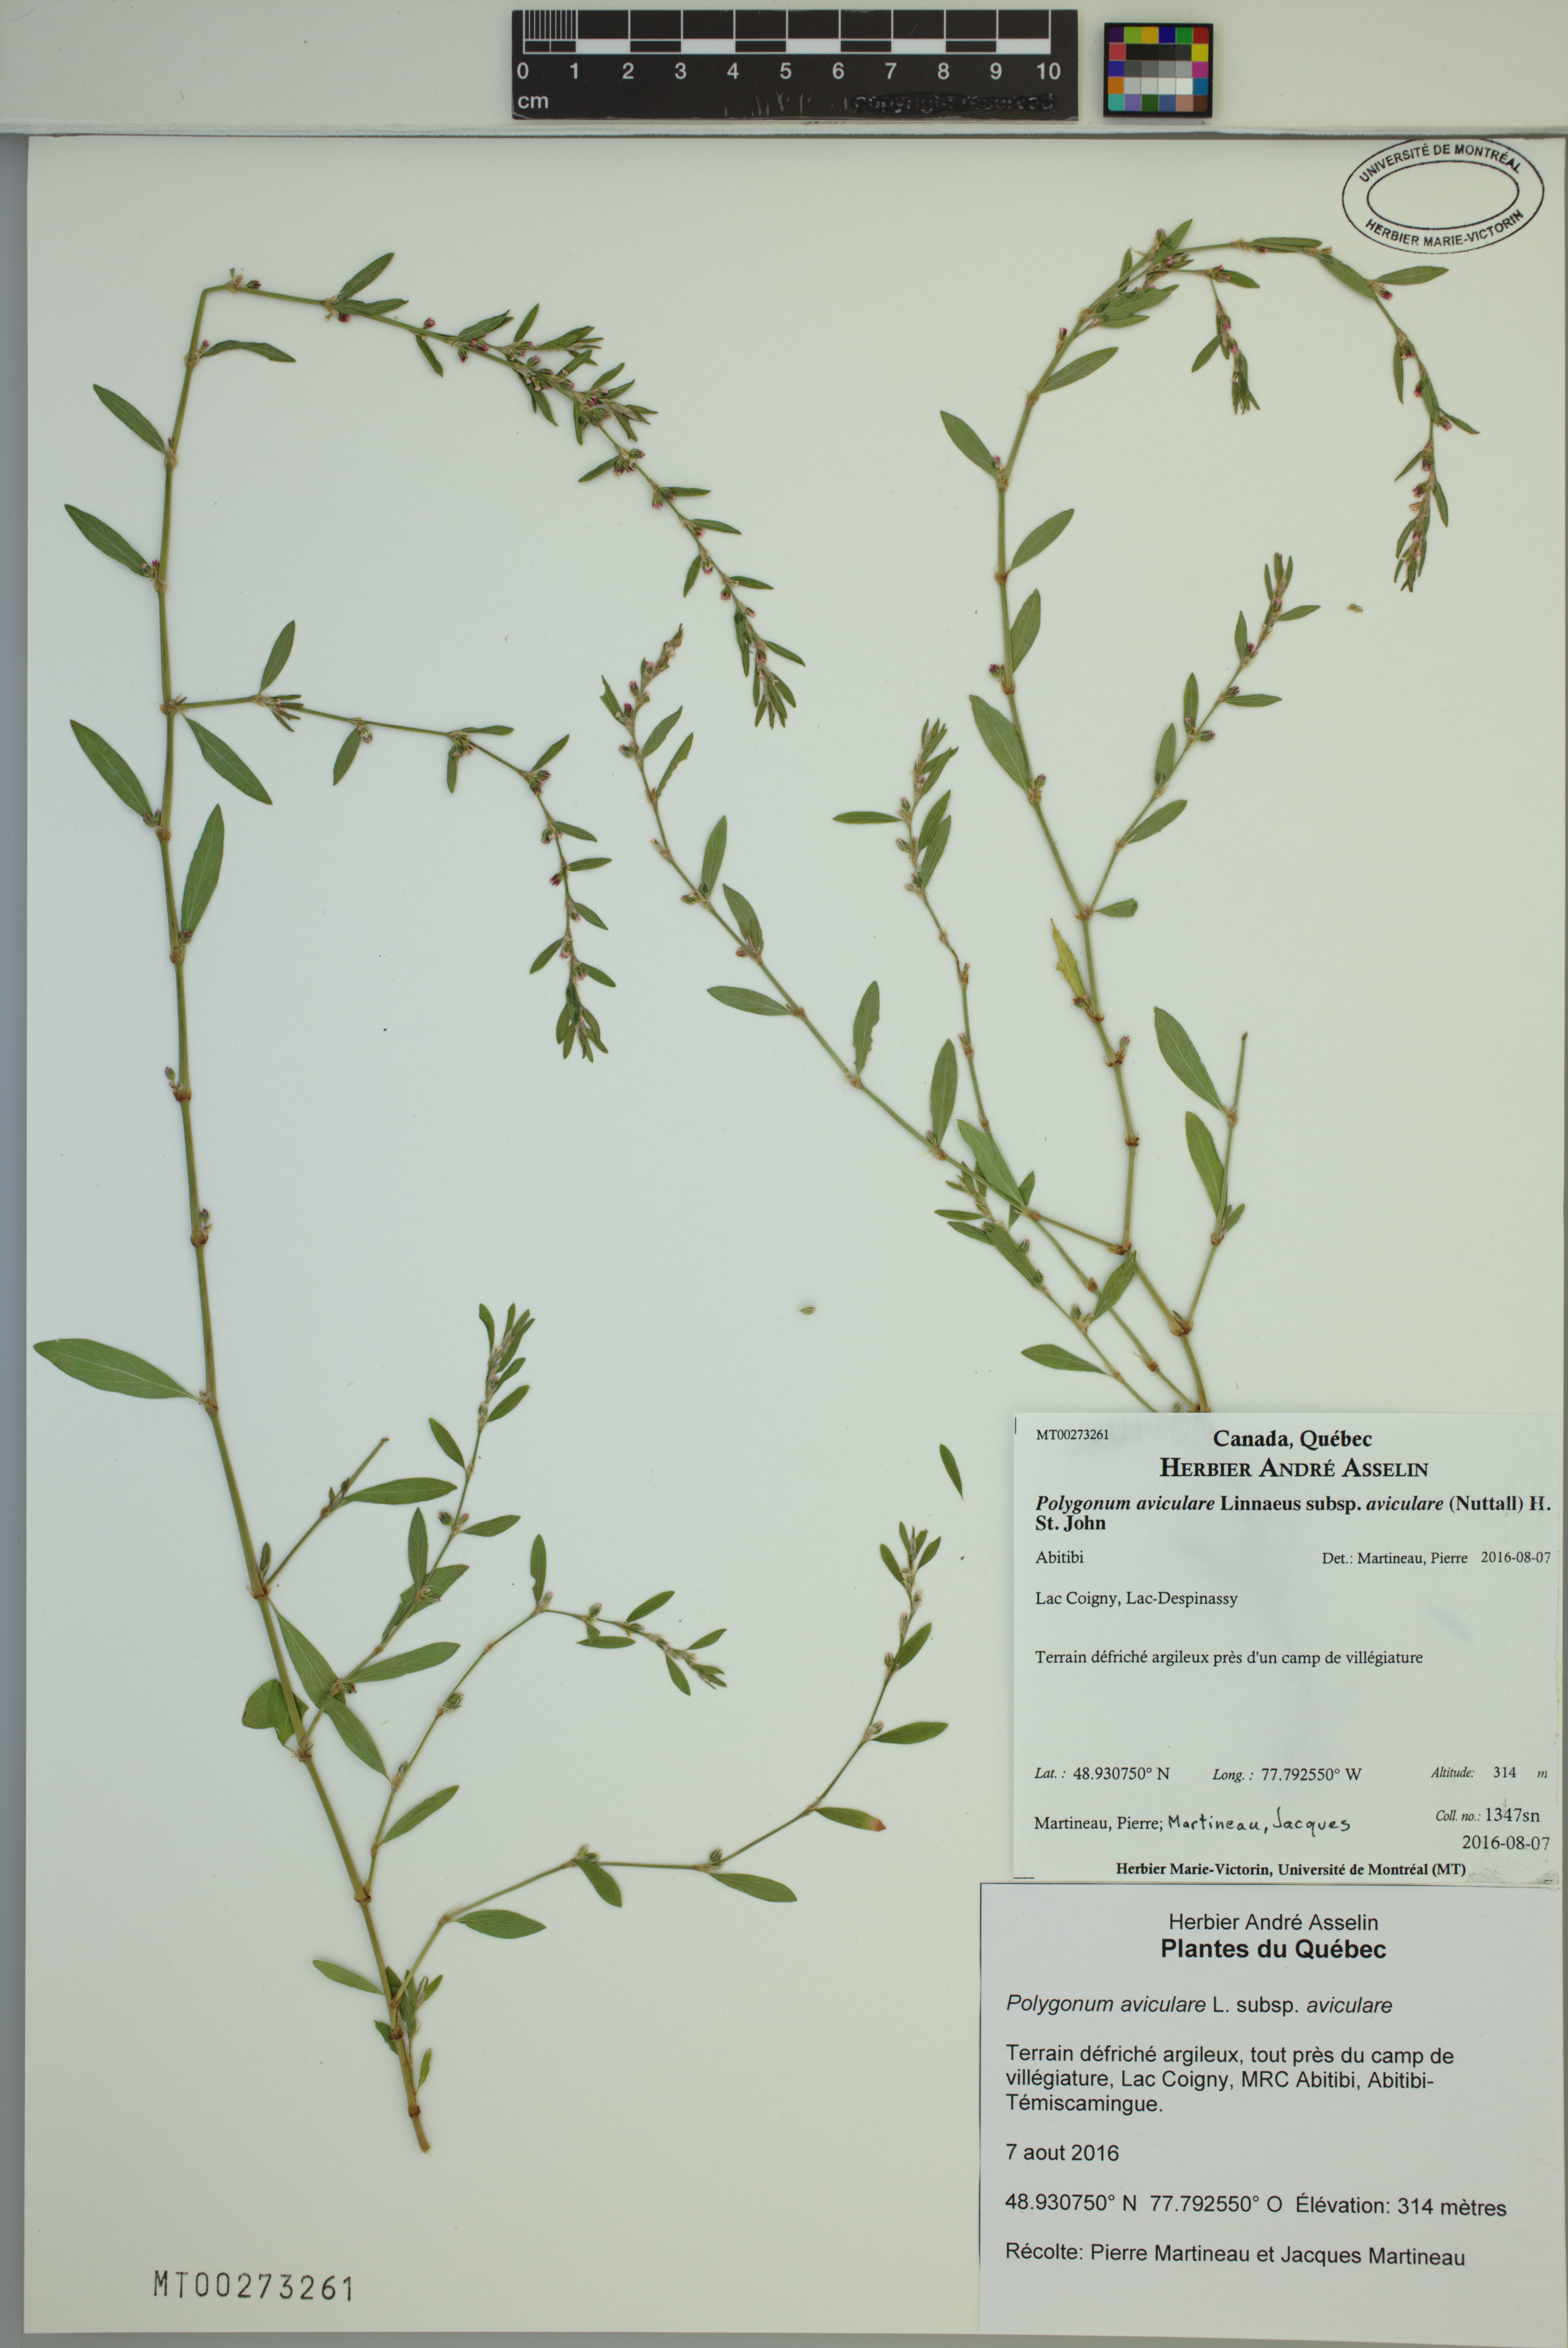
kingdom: Plantae
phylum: Tracheophyta
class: Magnoliopsida
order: Caryophyllales
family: Polygonaceae
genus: Polygonum
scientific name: Polygonum aviculare
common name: Prostrate knotweed
